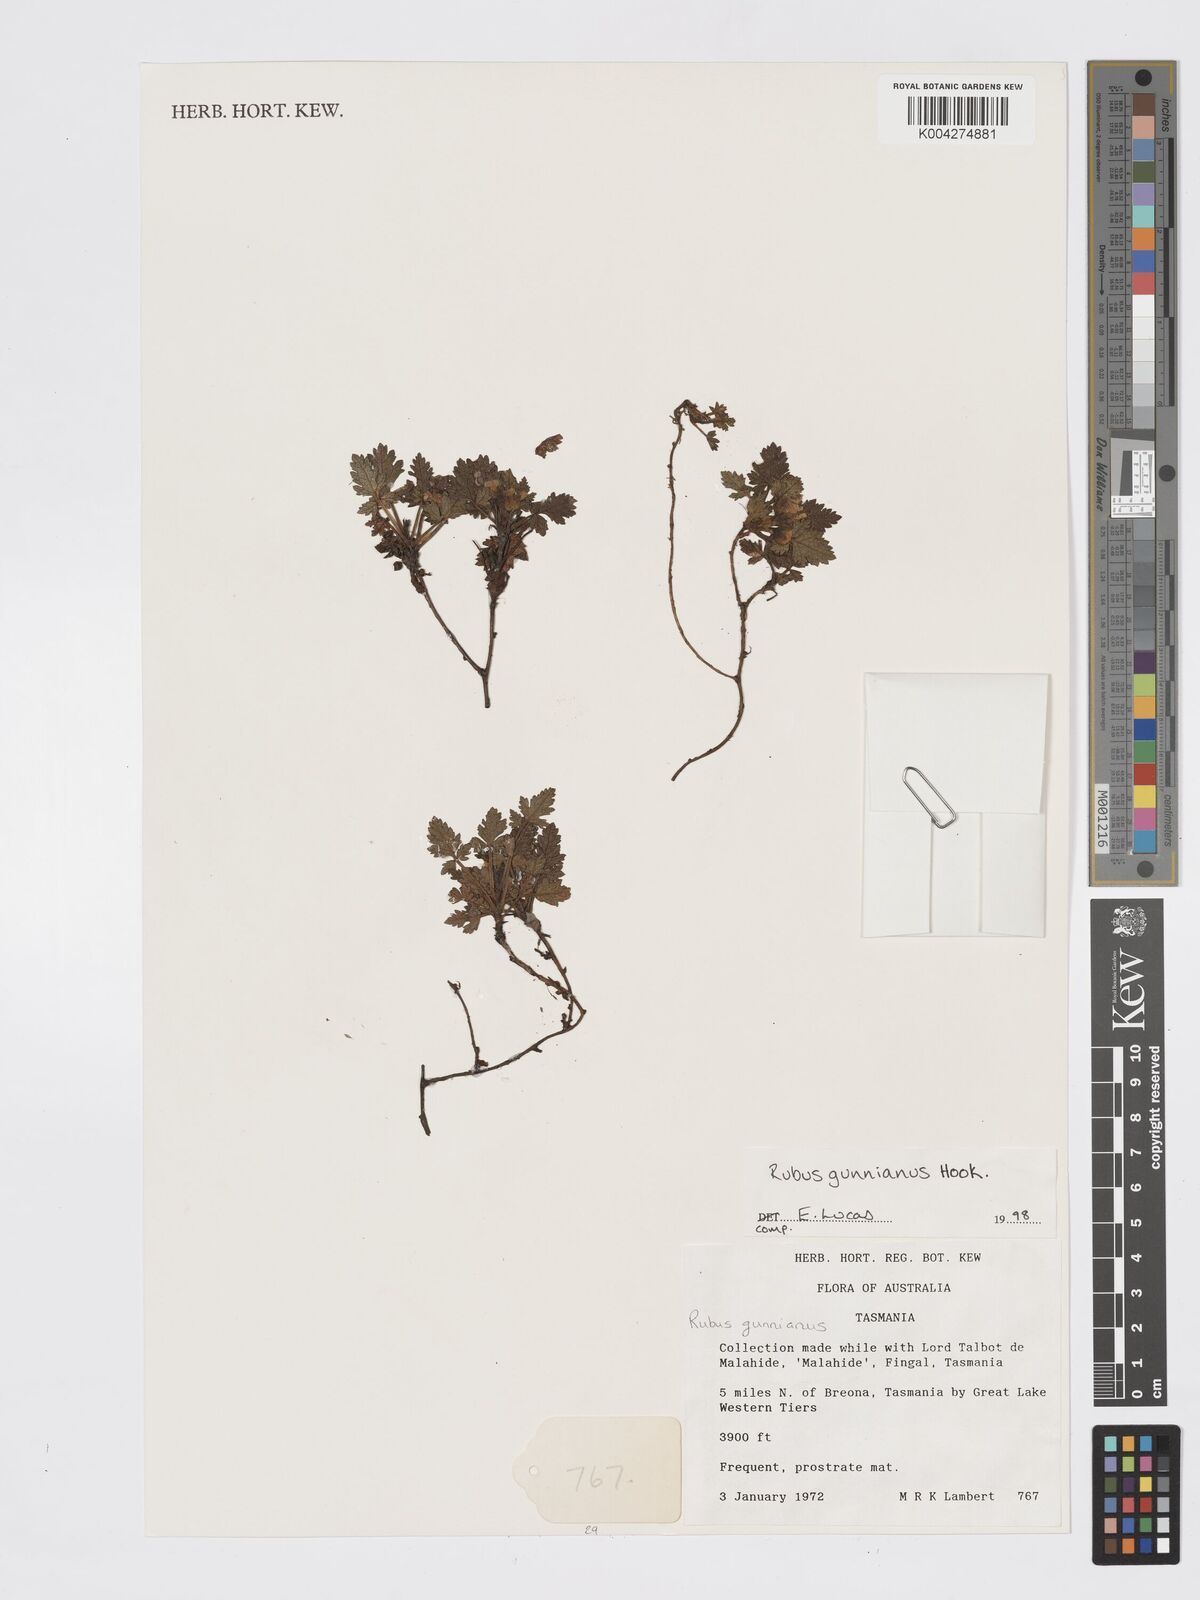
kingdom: Plantae
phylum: Tracheophyta
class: Magnoliopsida
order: Rosales
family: Rosaceae
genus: Rubus
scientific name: Rubus gunnianus
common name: Mountain raspberry
